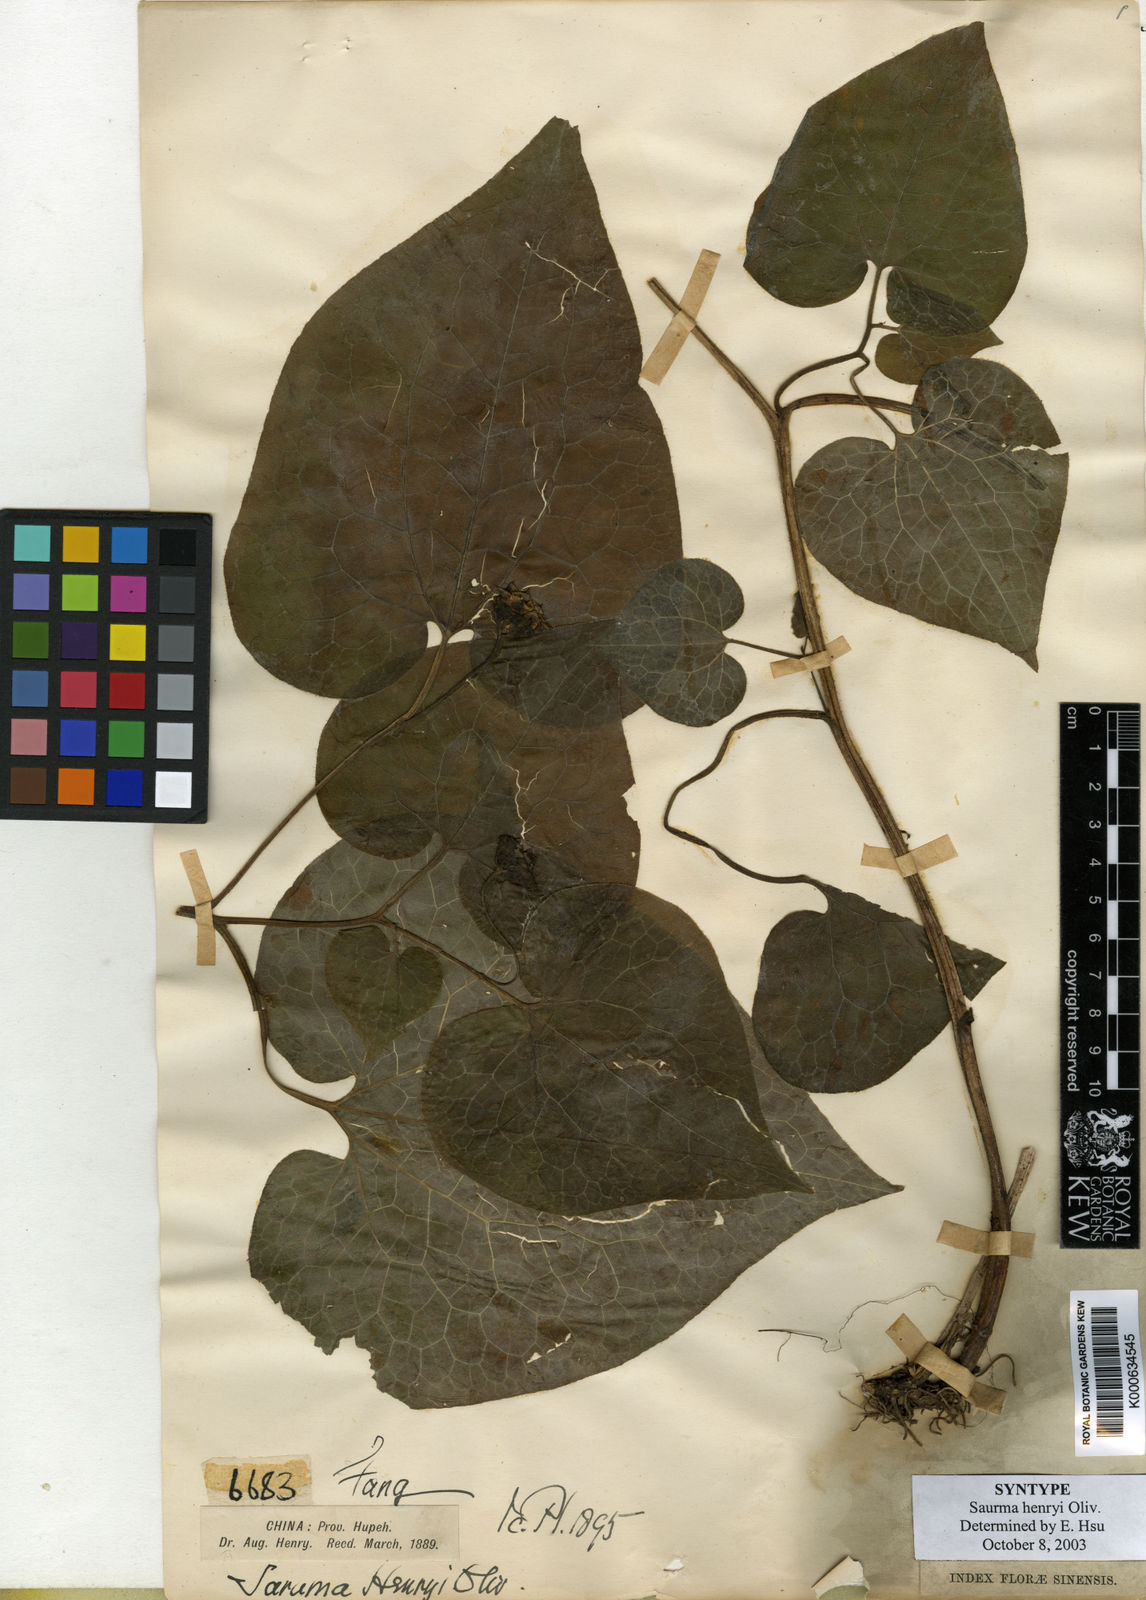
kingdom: Plantae
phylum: Tracheophyta
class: Magnoliopsida
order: Piperales
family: Aristolochiaceae
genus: Saruma
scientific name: Saruma henryi
